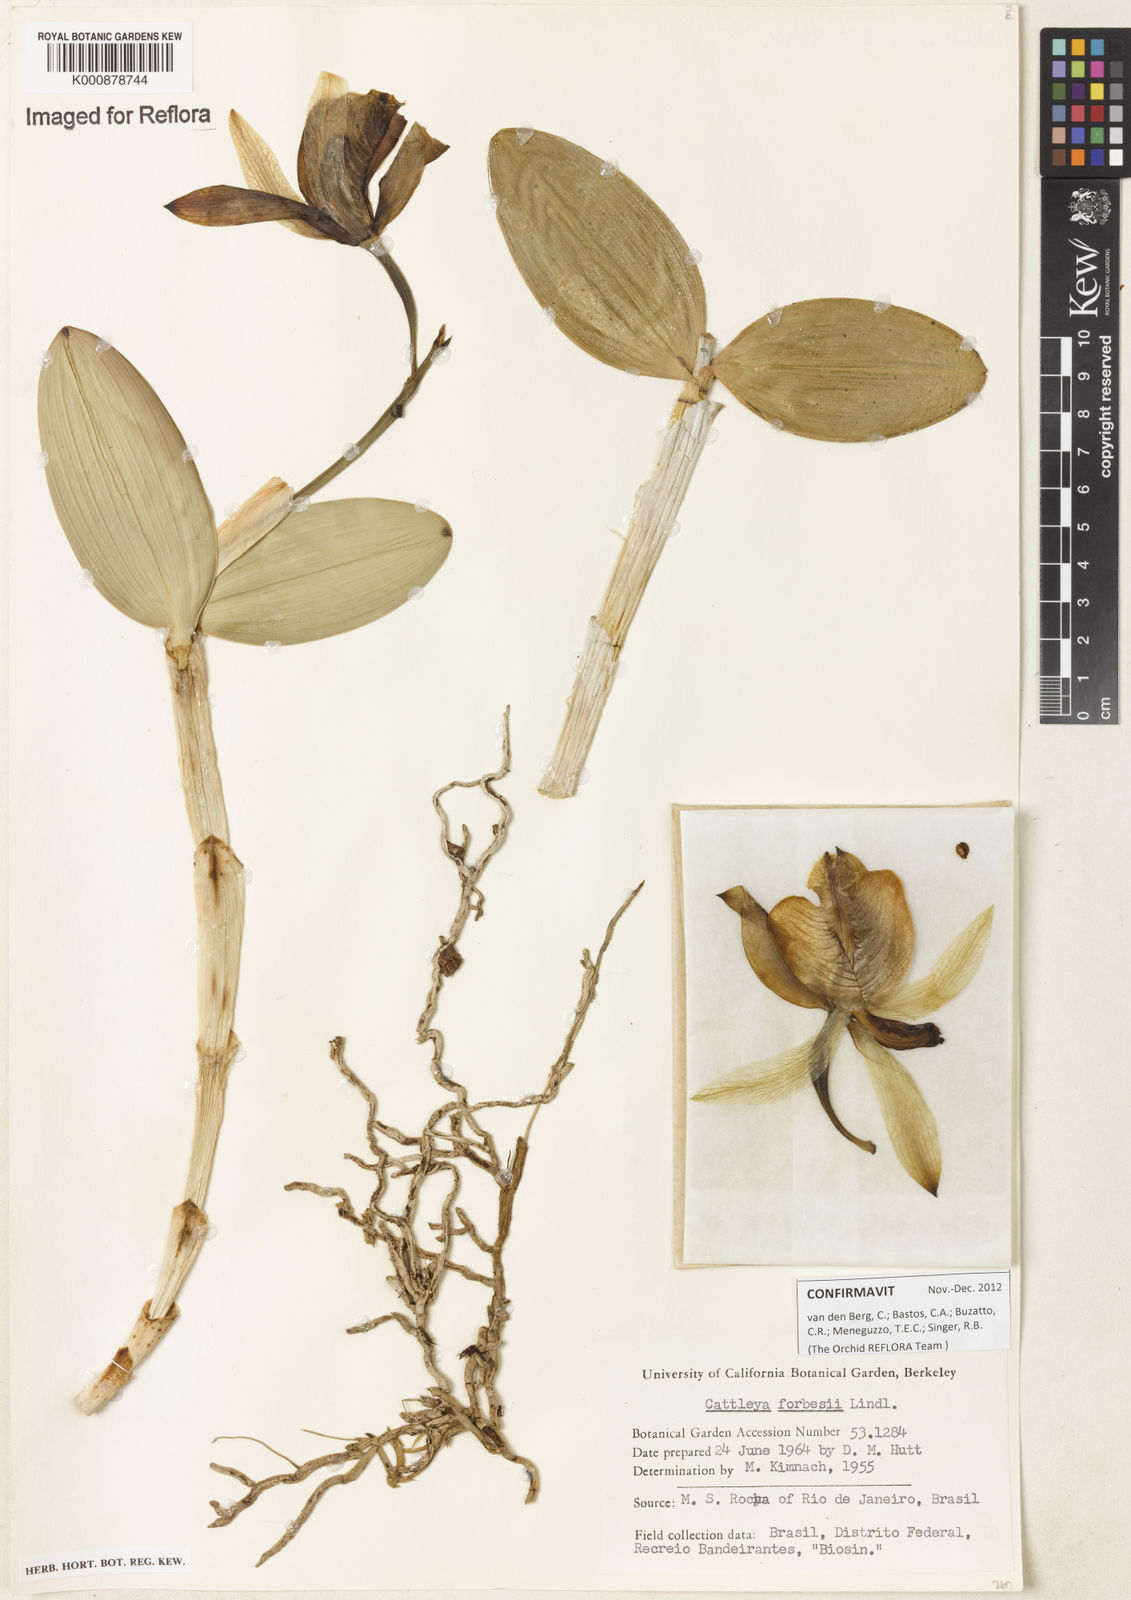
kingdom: Plantae
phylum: Tracheophyta
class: Liliopsida
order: Asparagales
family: Orchidaceae
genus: Cattleya
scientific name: Cattleya forbesii
